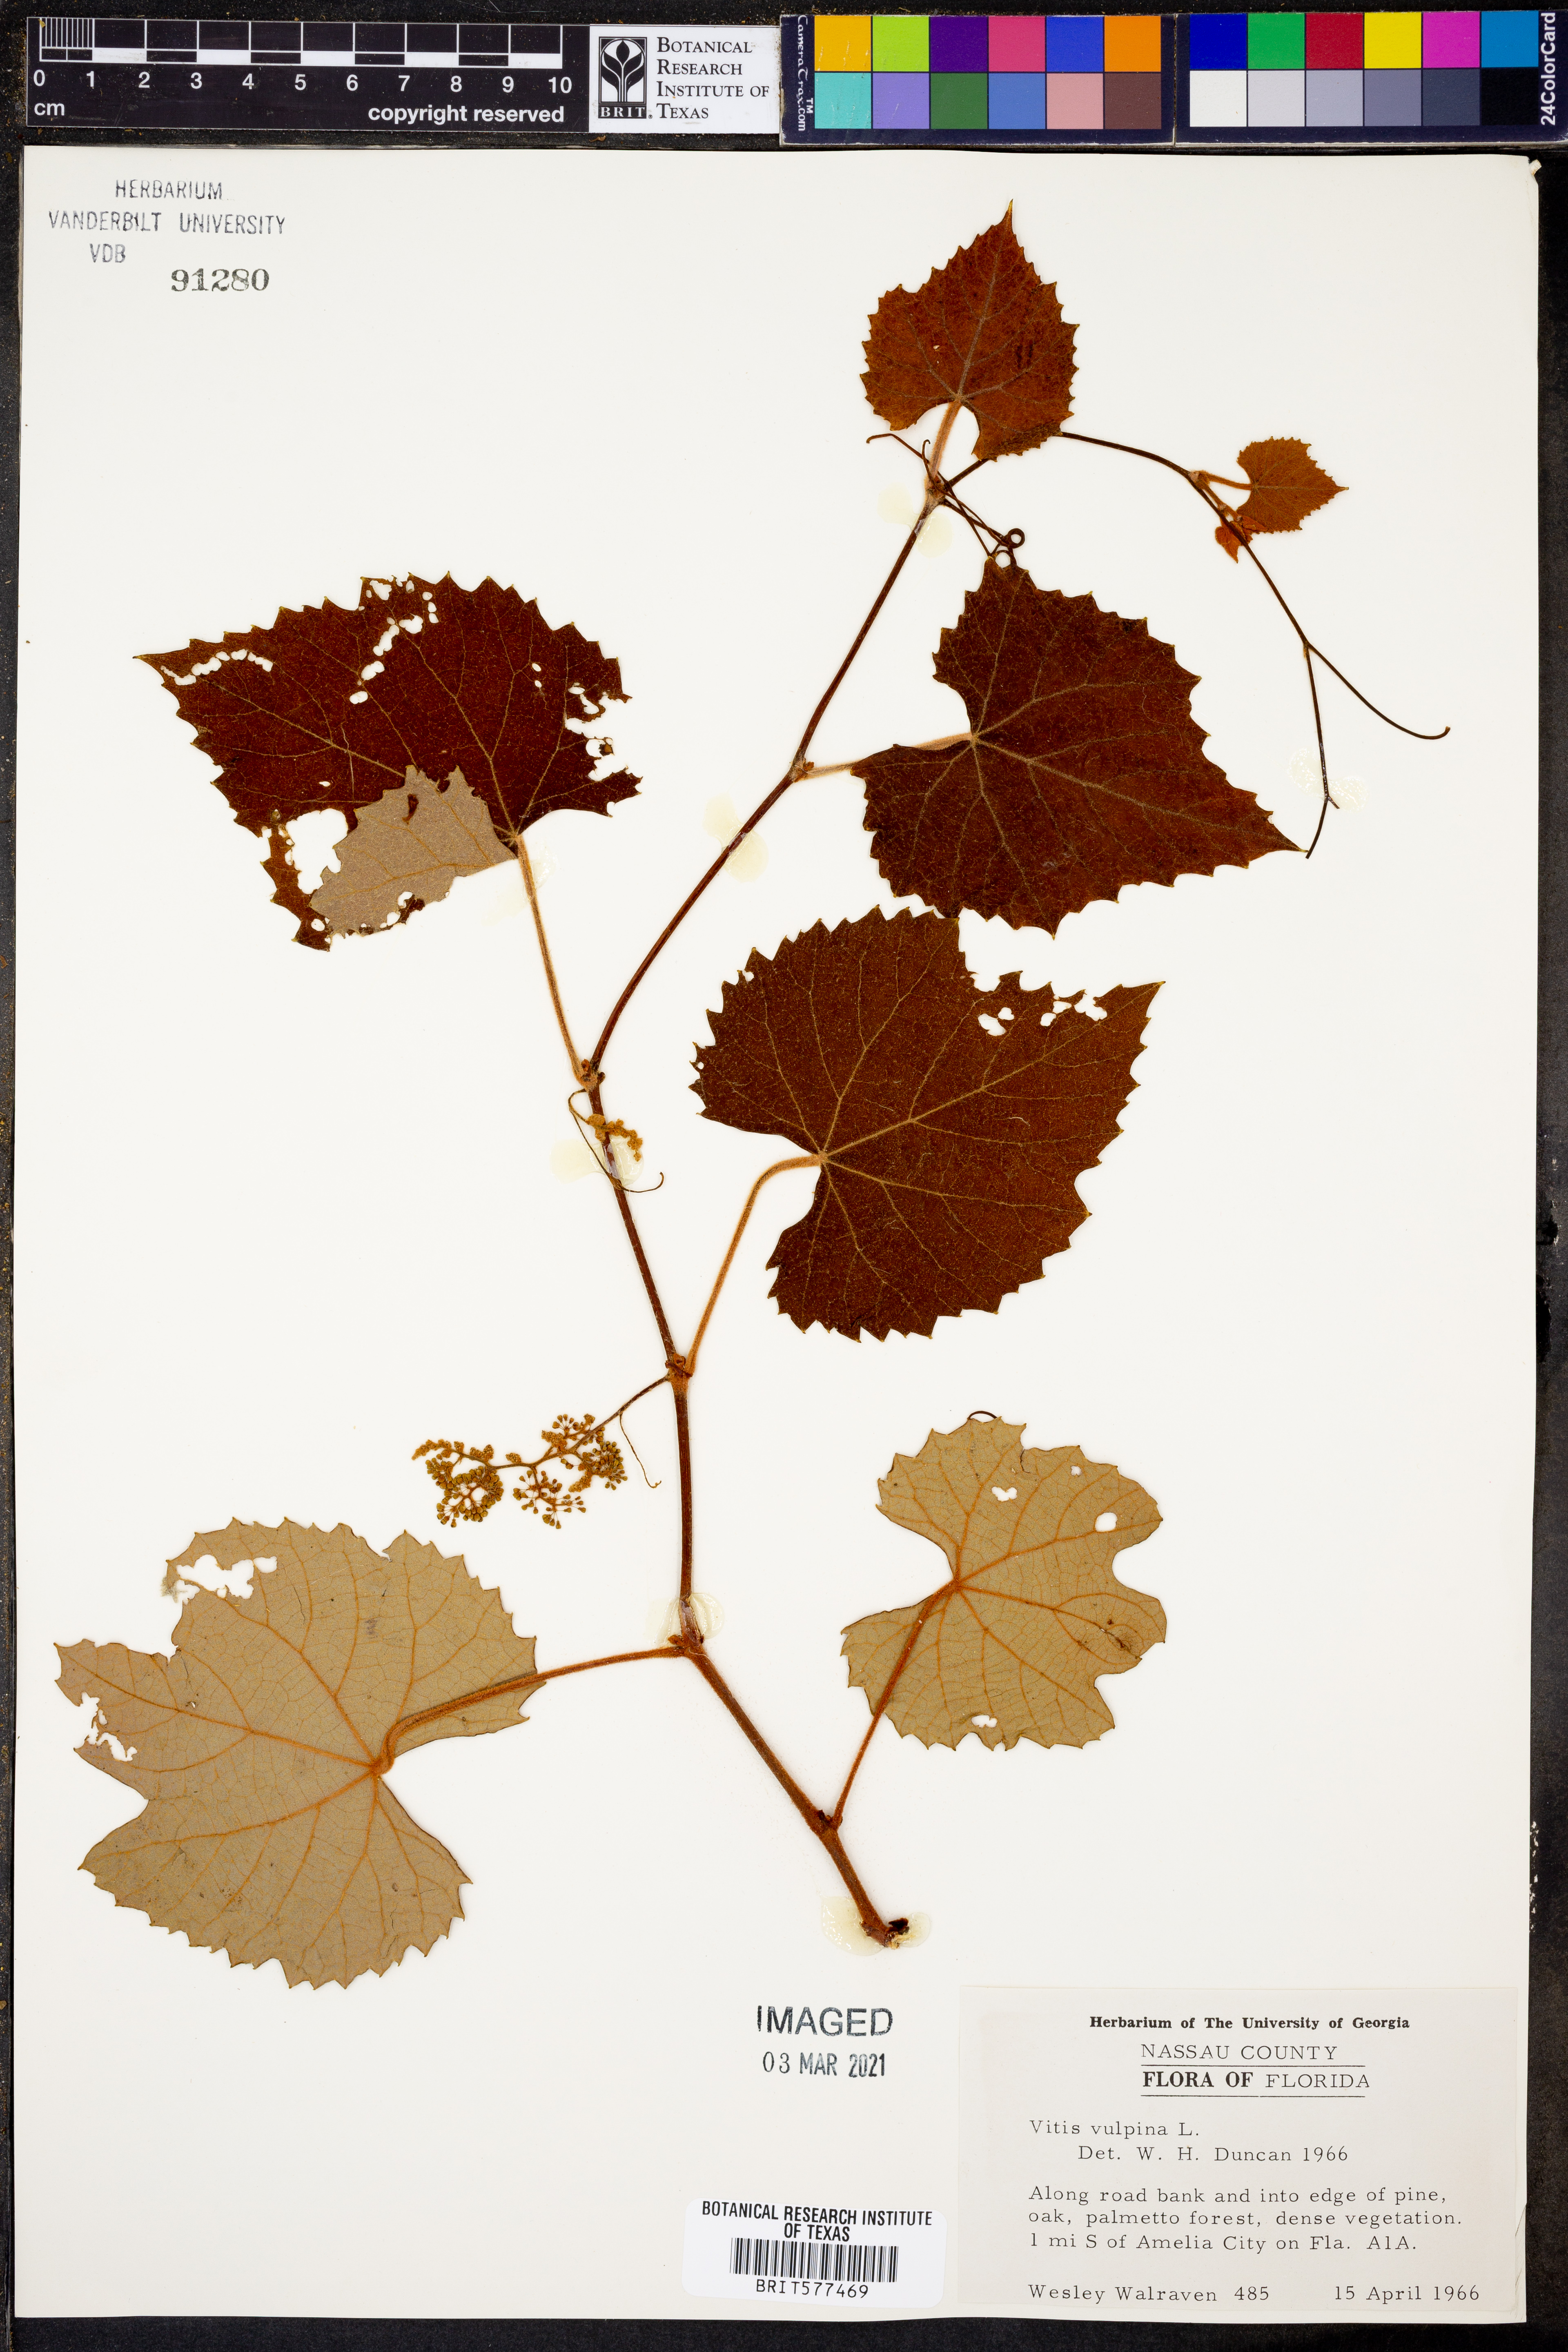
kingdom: Plantae
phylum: Tracheophyta
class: Magnoliopsida
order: Vitales
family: Vitaceae
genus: Vitis
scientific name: Vitis vulpina
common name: Frost grape
